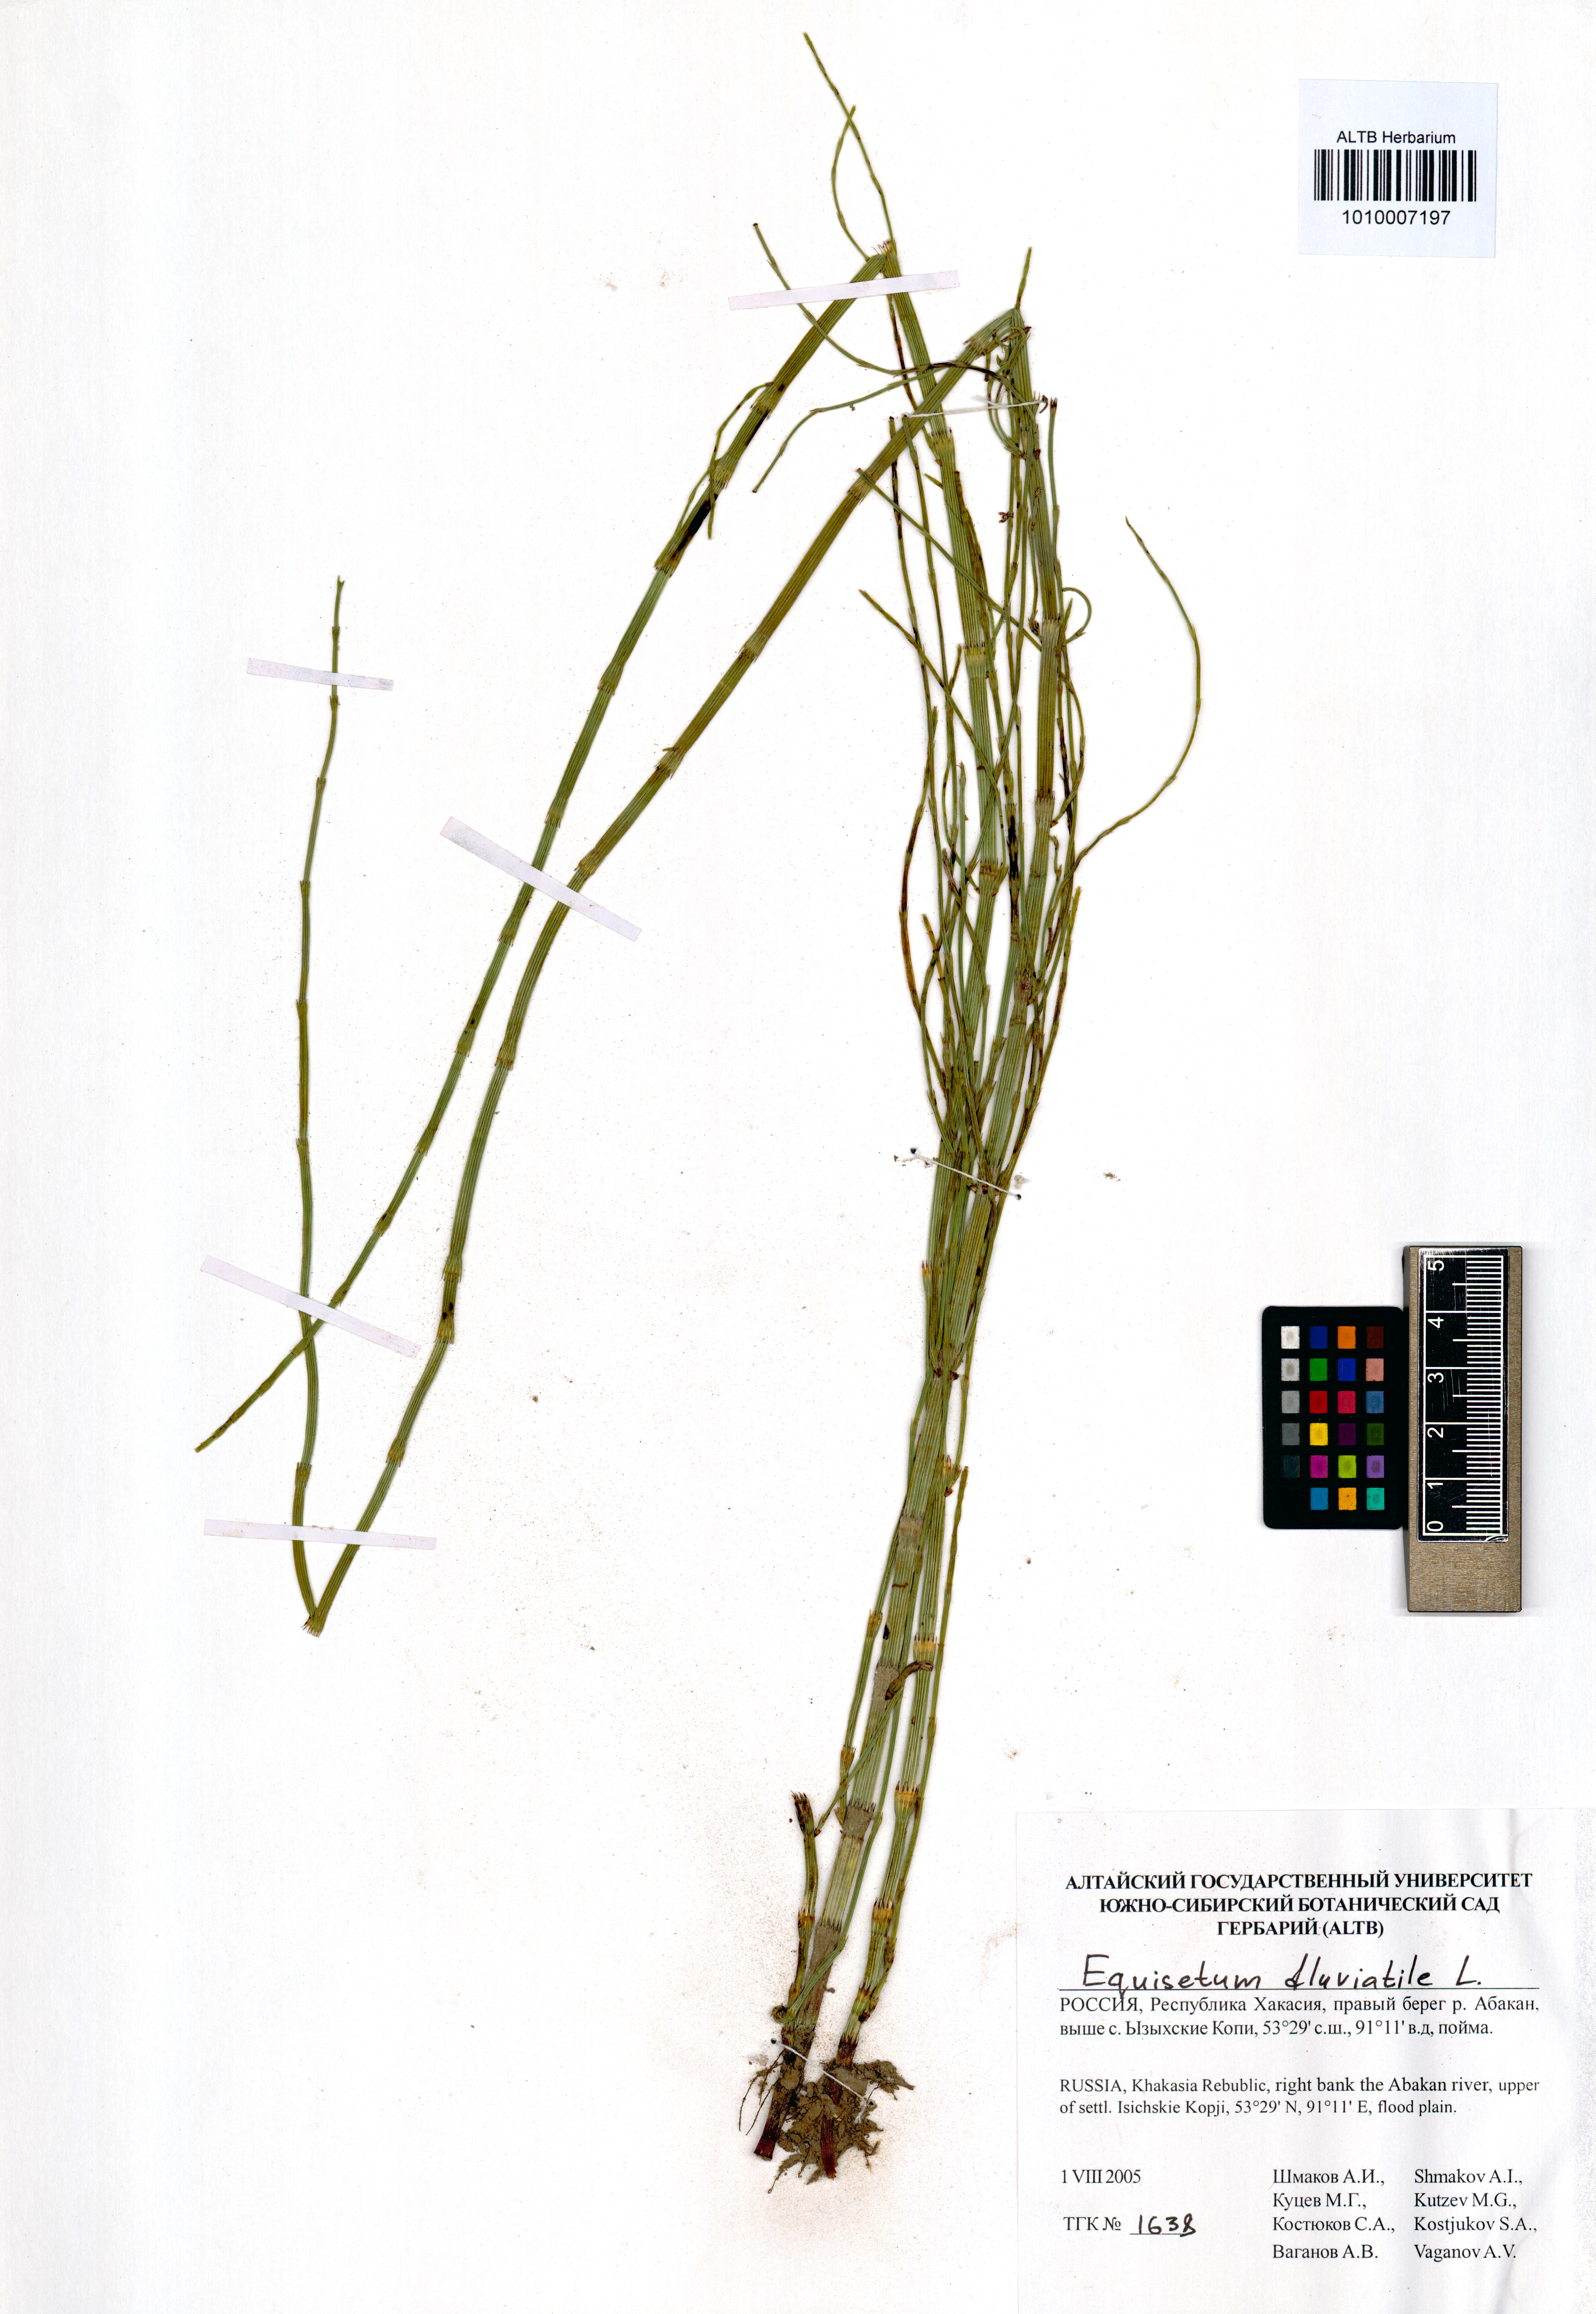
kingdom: Plantae
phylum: Tracheophyta
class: Polypodiopsida
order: Equisetales
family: Equisetaceae
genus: Equisetum
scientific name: Equisetum fluviatile
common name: Water horsetail
